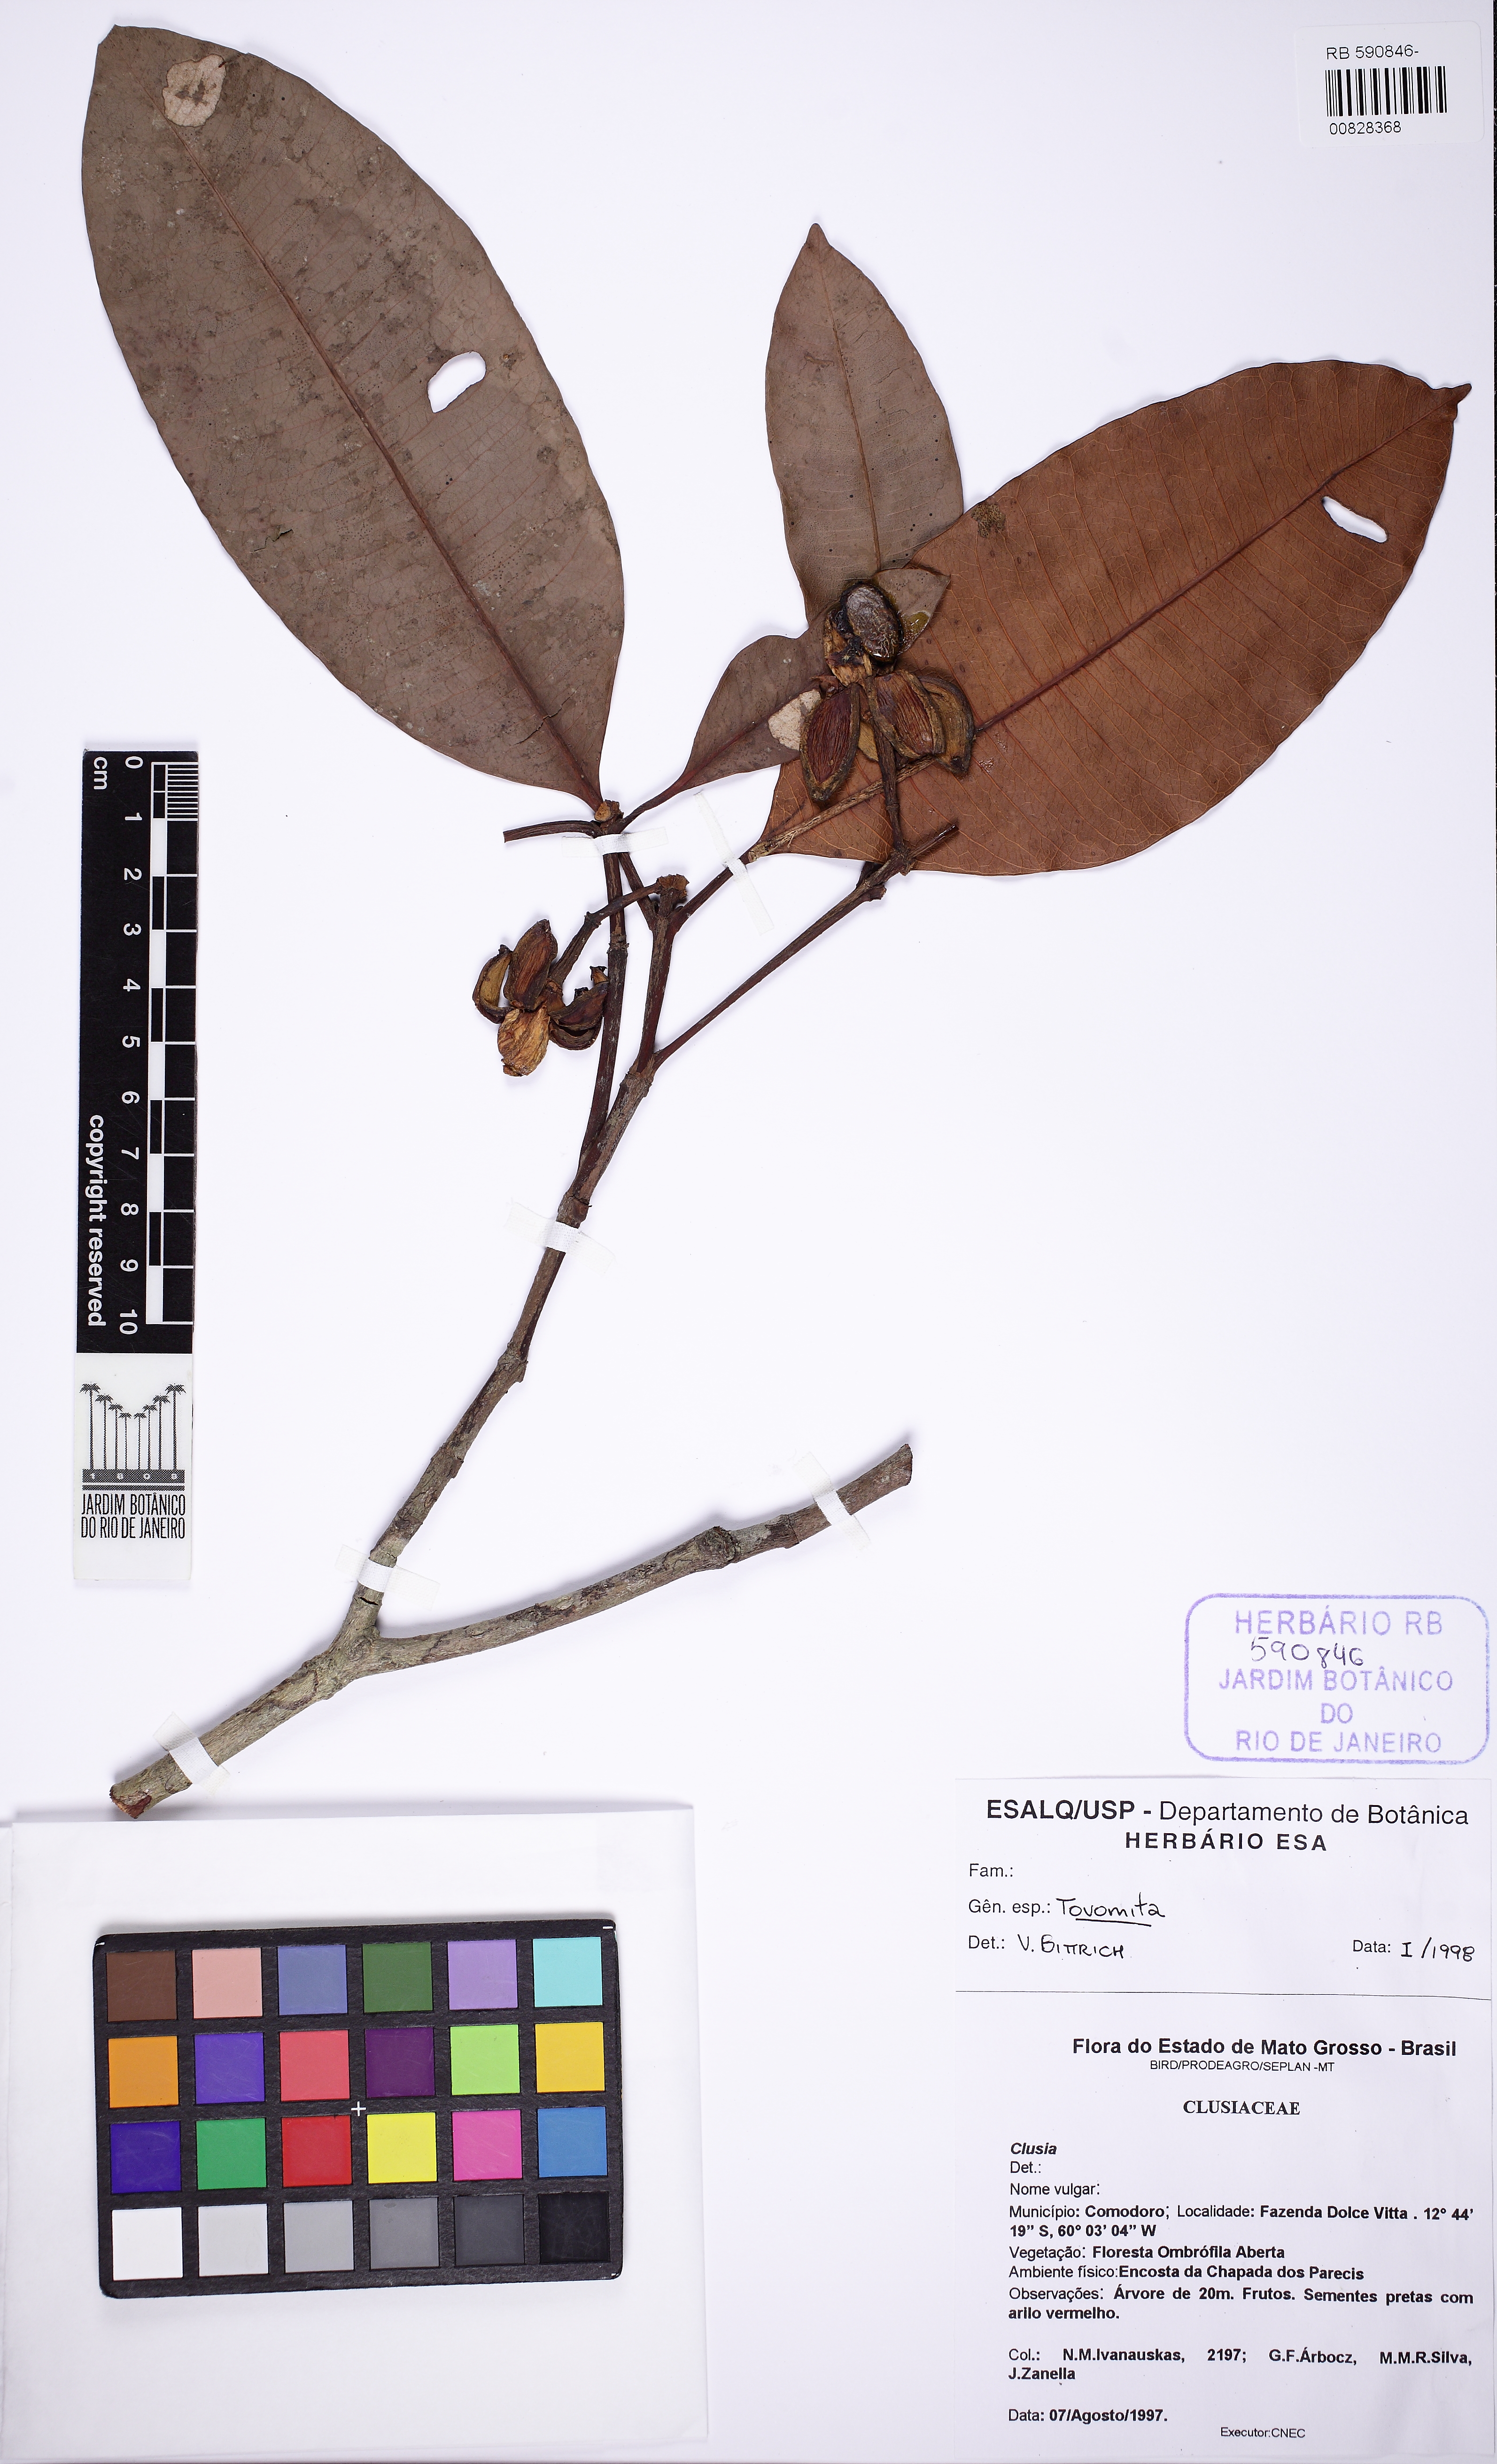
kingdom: Plantae
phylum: Tracheophyta
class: Magnoliopsida
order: Malpighiales
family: Clusiaceae
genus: Tovomita
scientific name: Tovomita
